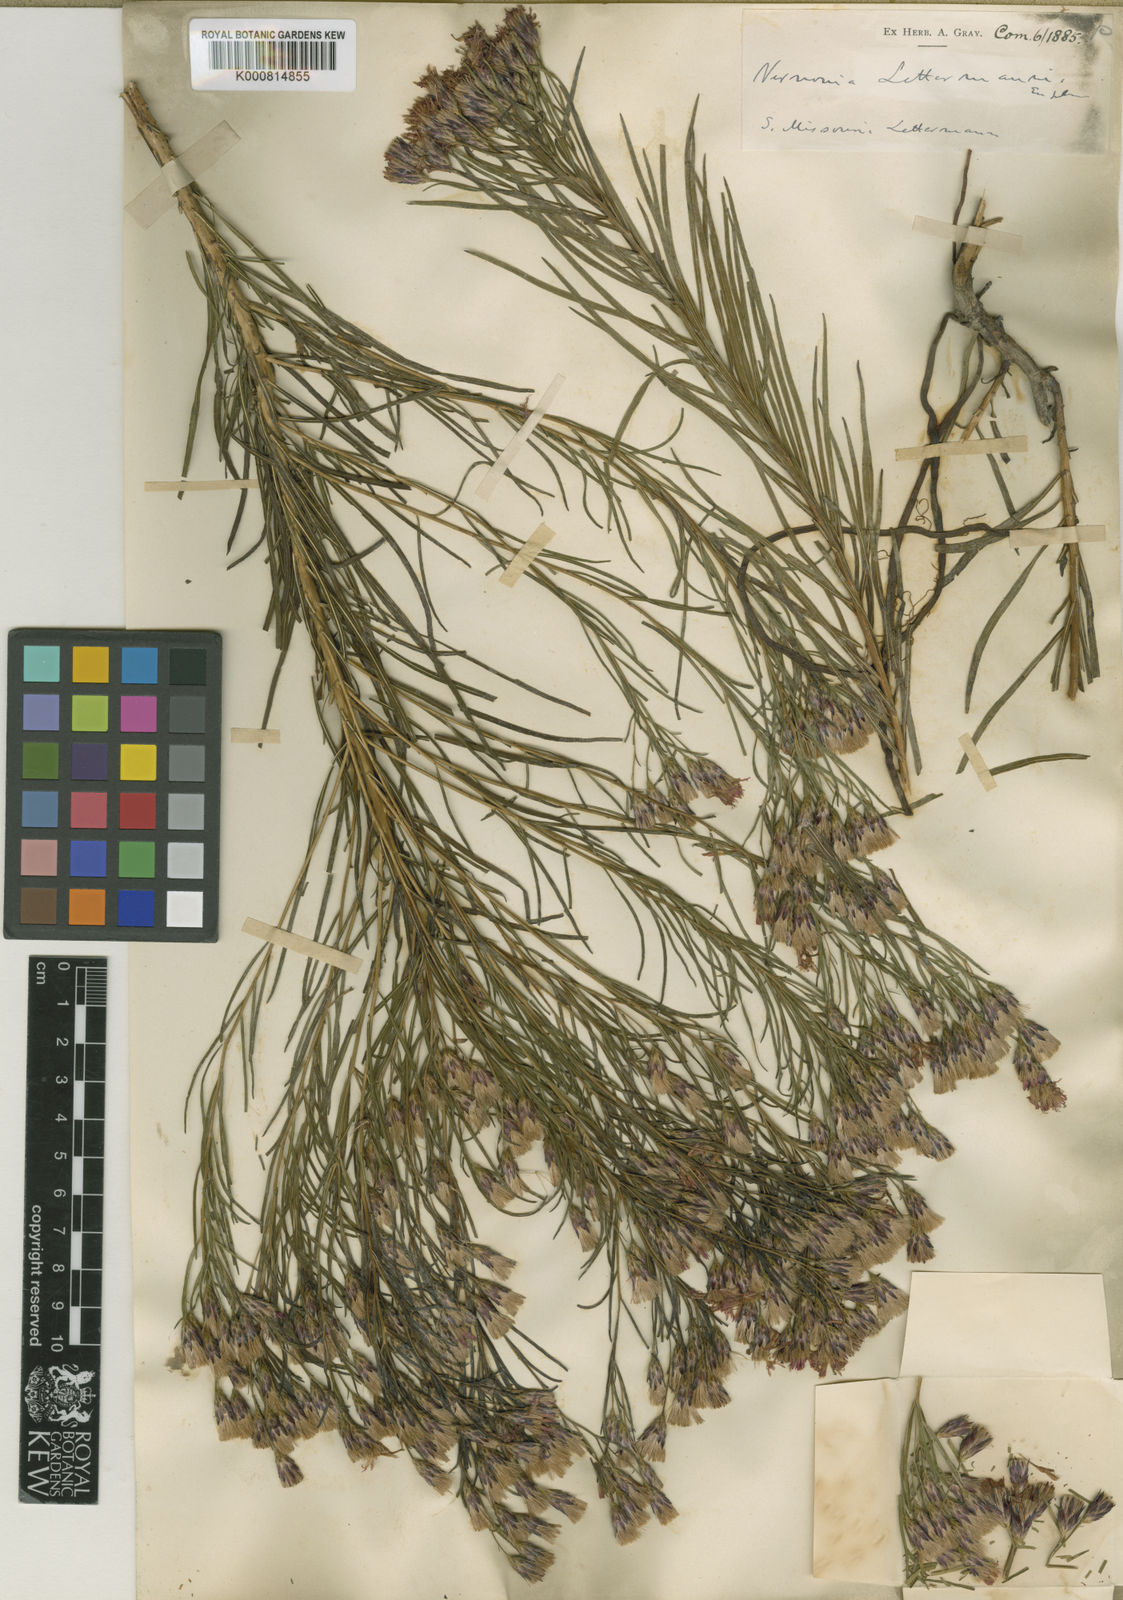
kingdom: Plantae
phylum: Tracheophyta
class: Magnoliopsida
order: Asterales
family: Asteraceae
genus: Vernonia
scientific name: Vernonia
